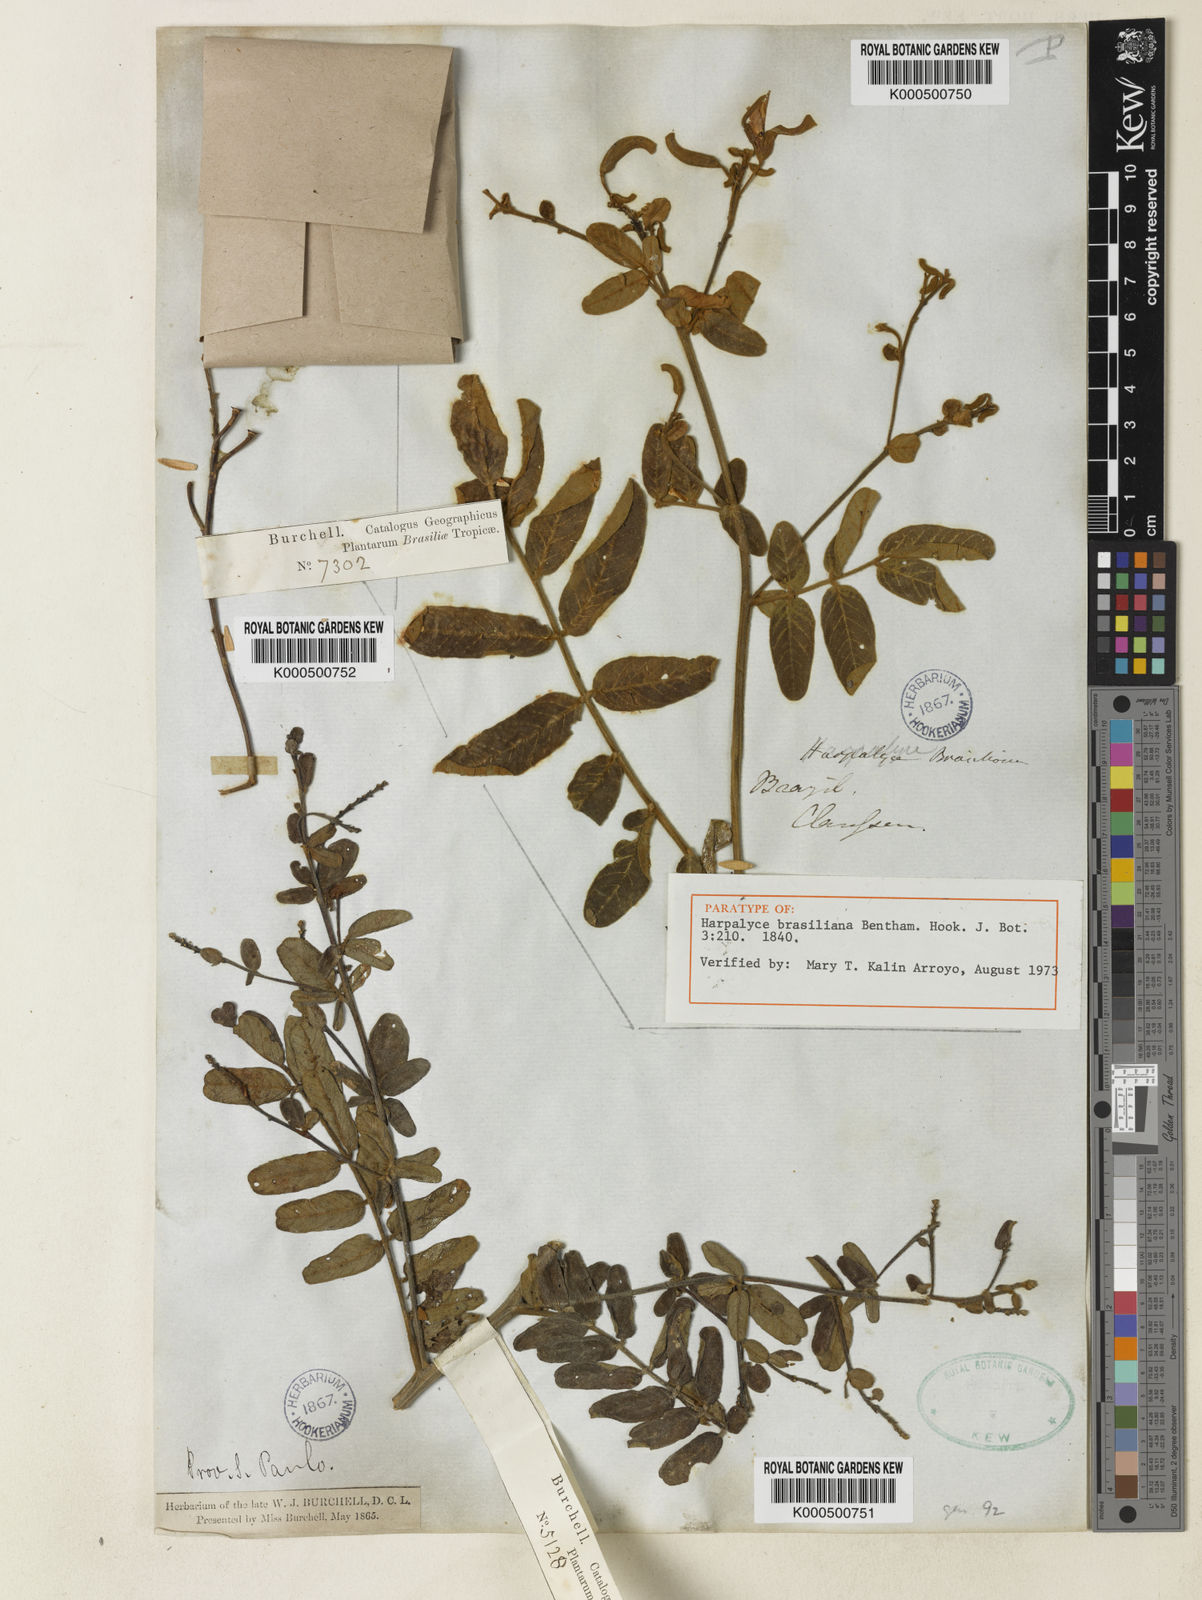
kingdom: Plantae
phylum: Tracheophyta
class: Magnoliopsida
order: Fabales
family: Fabaceae
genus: Harpalyce
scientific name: Harpalyce brasiliana
